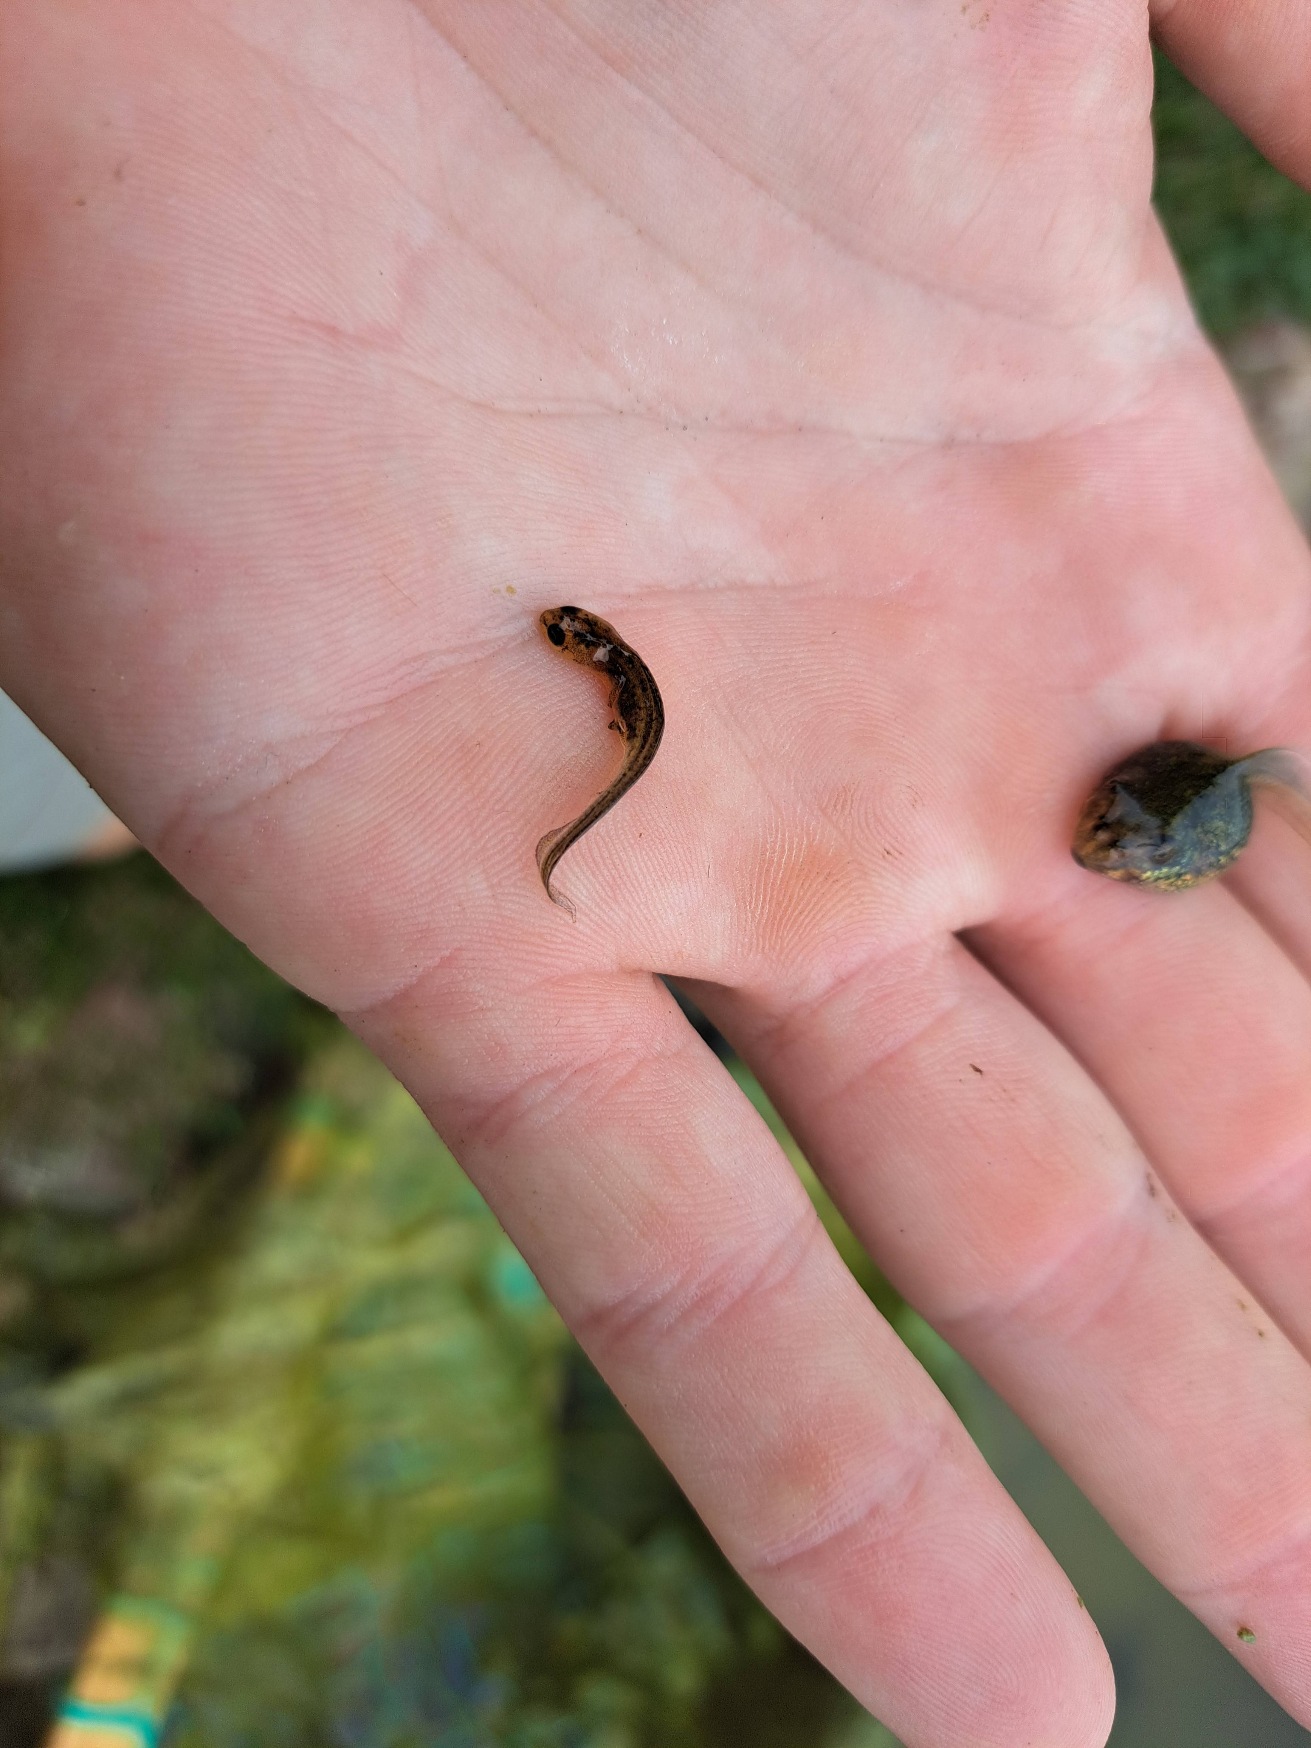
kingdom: Animalia
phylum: Chordata
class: Amphibia
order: Caudata
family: Salamandridae
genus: Lissotriton
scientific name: Lissotriton vulgaris
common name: Lille vandsalamander
